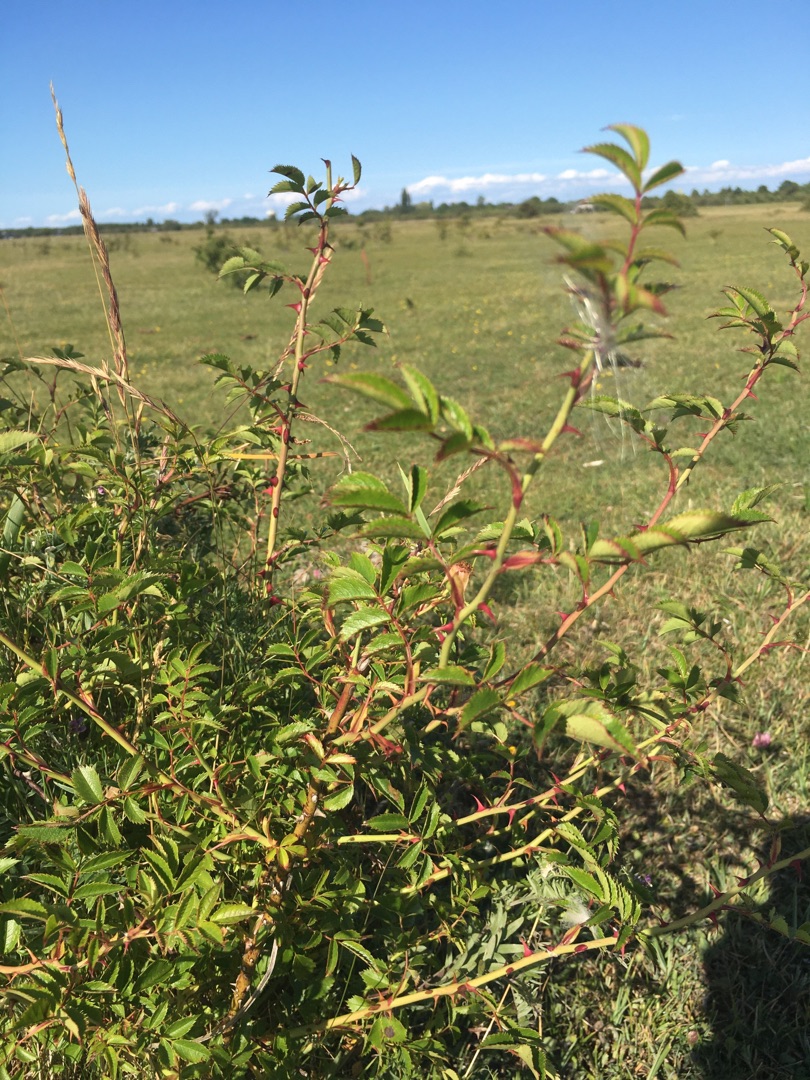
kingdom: Plantae
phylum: Tracheophyta
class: Magnoliopsida
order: Rosales
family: Rosaceae
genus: Rosa
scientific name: Rosa canina
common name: Glat hunde-rose
